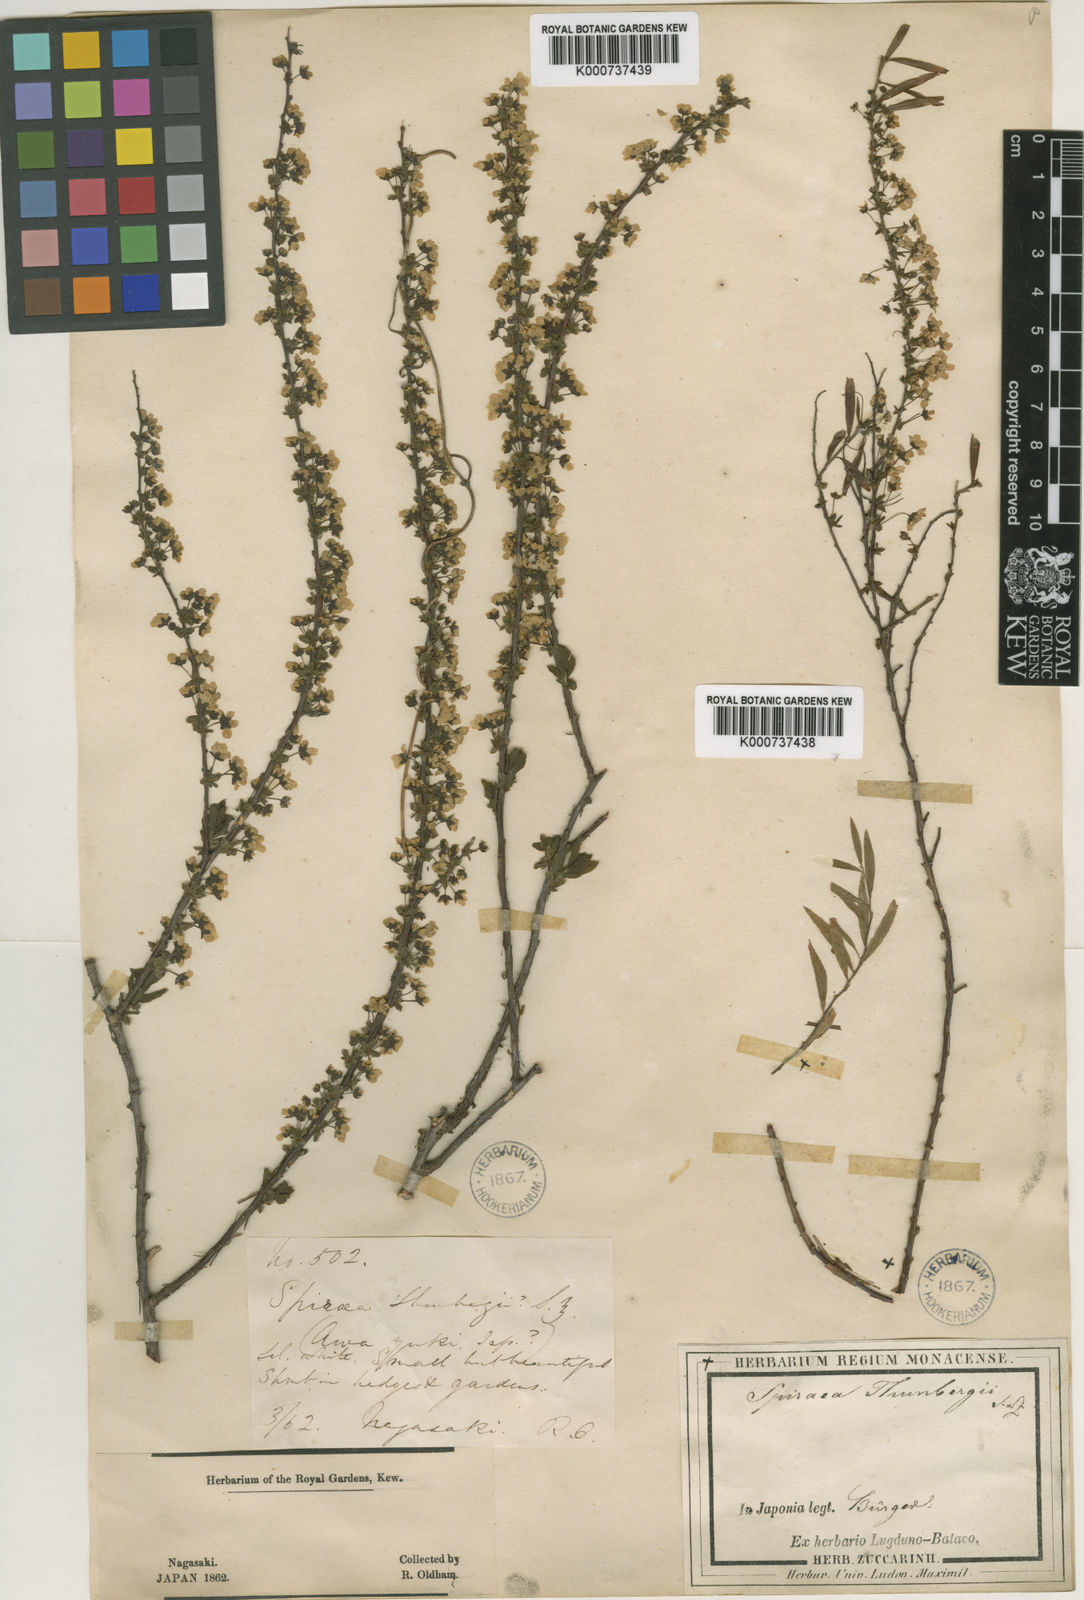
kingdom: Plantae
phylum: Tracheophyta
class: Magnoliopsida
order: Rosales
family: Rosaceae
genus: Spiraea
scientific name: Spiraea
